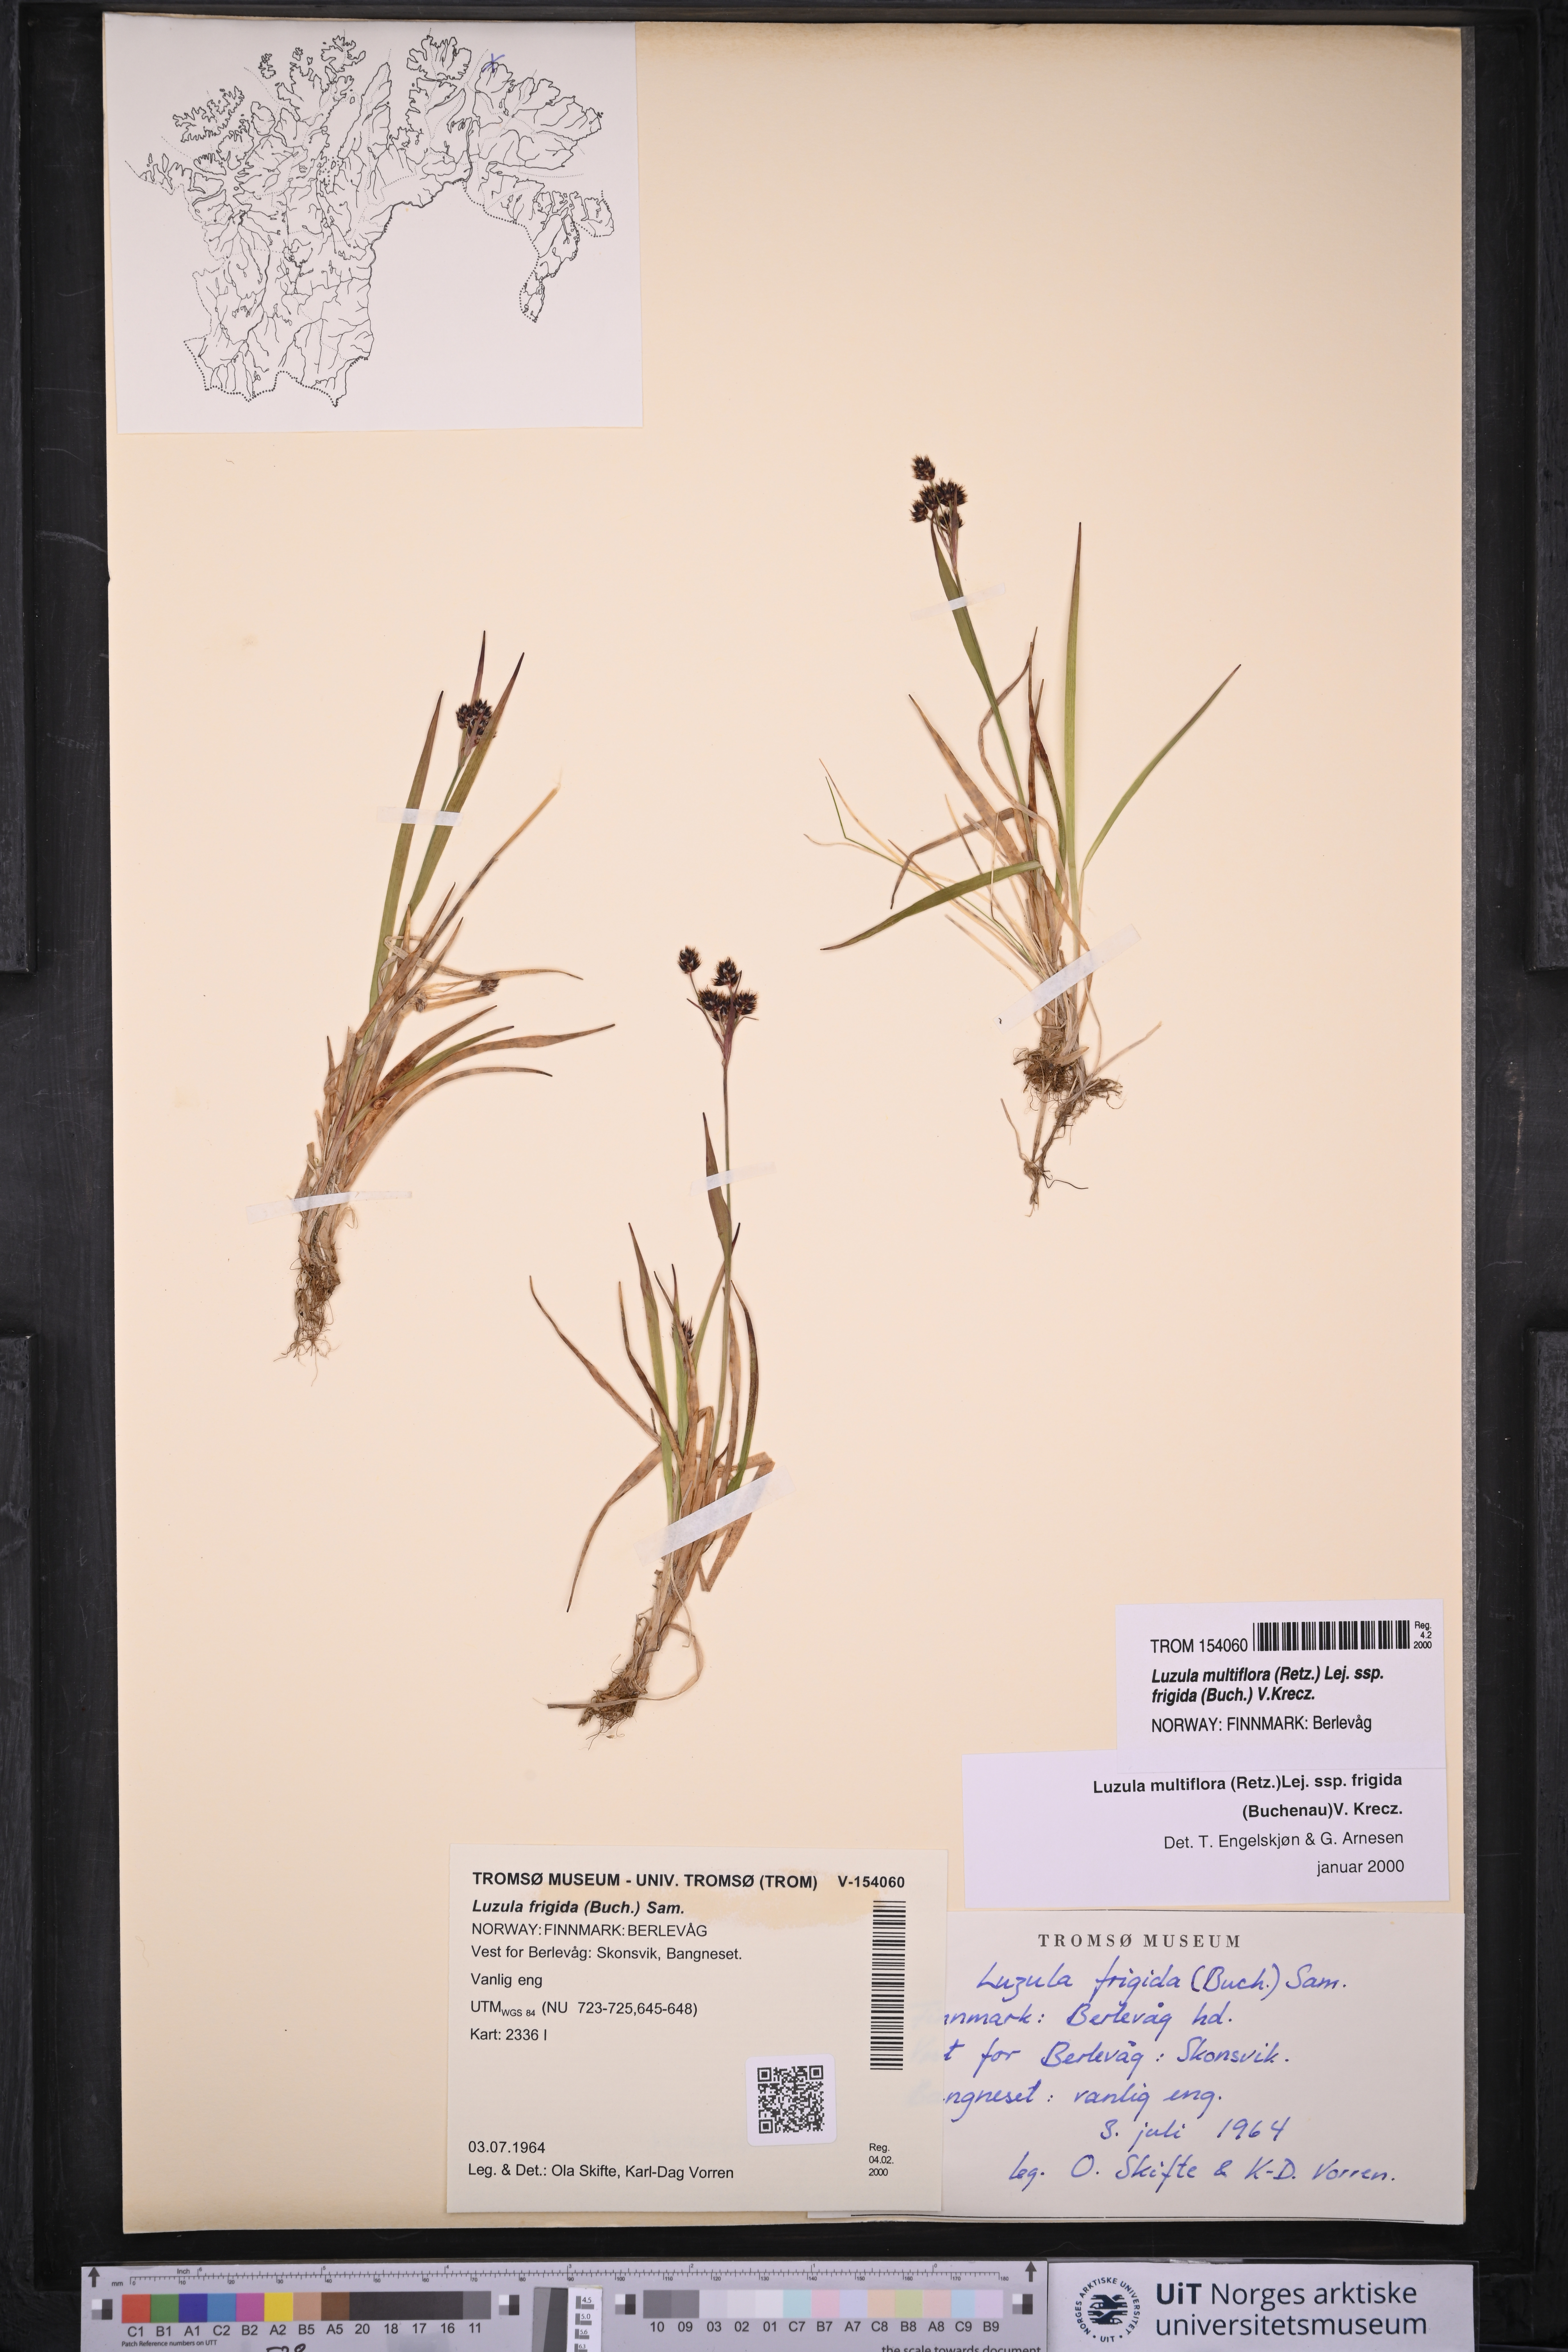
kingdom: Plantae
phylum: Tracheophyta
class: Liliopsida
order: Poales
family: Juncaceae
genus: Luzula
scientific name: Luzula multiflora
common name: Heath wood-rush
